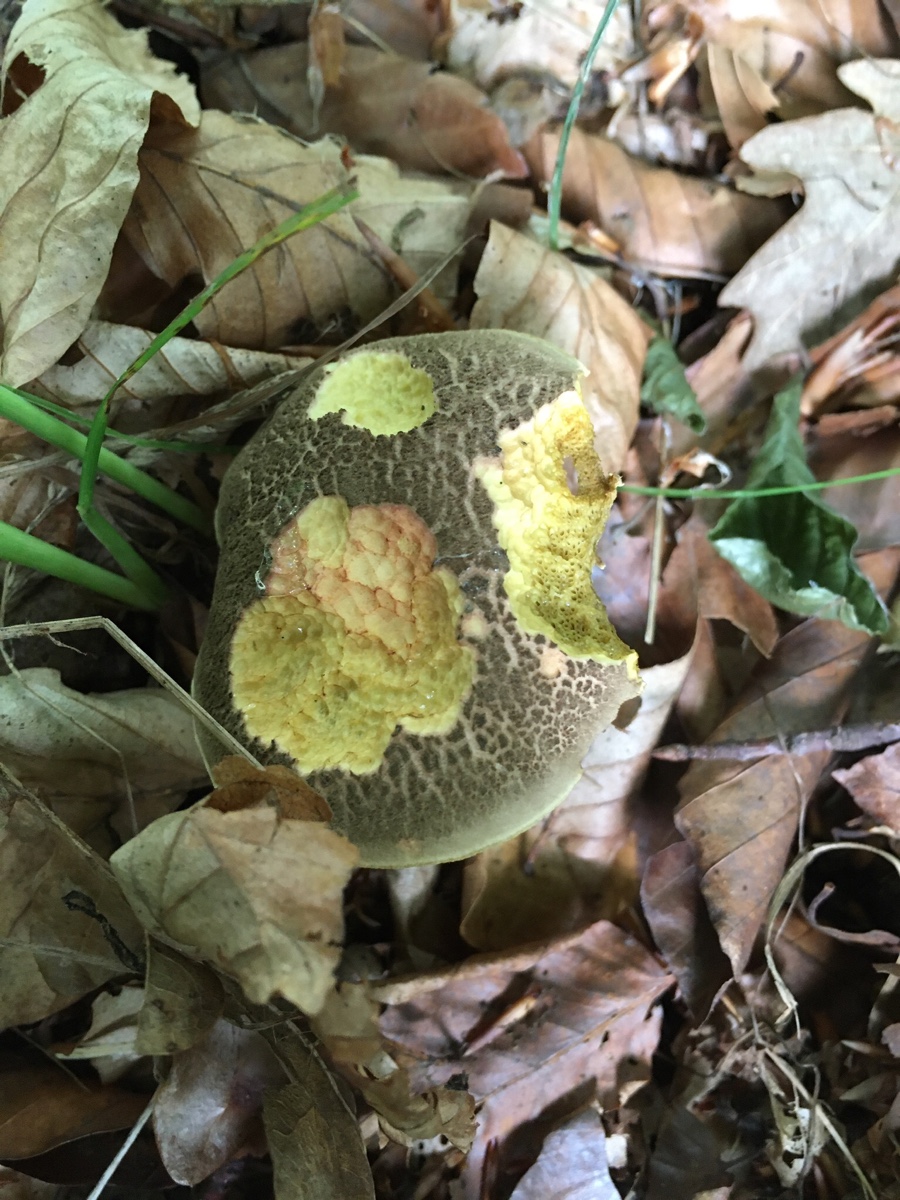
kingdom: Fungi
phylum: Basidiomycota
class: Agaricomycetes
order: Boletales
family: Boletaceae
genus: Xerocomellus
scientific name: Xerocomellus chrysenteron
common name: rødsprukken rørhat
